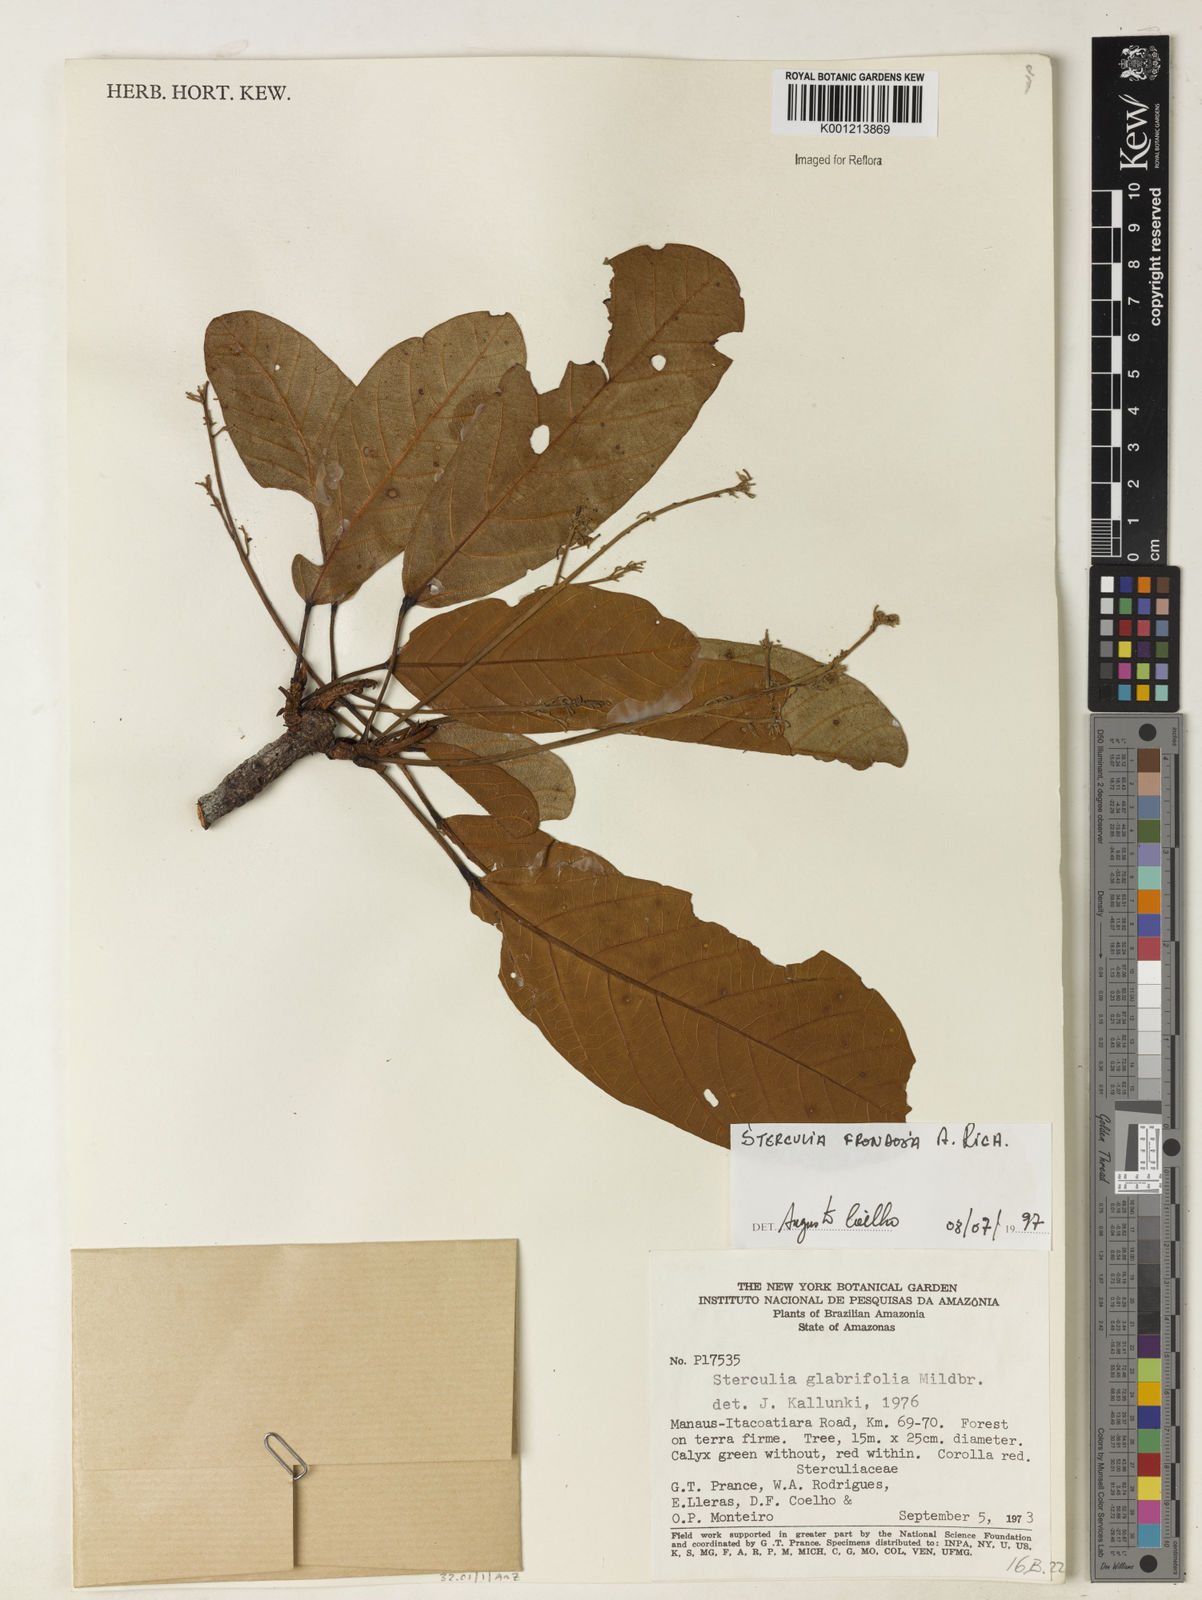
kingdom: Plantae
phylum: Tracheophyta
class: Magnoliopsida
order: Malvales
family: Malvaceae
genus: Sterculia
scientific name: Sterculia frondosa
